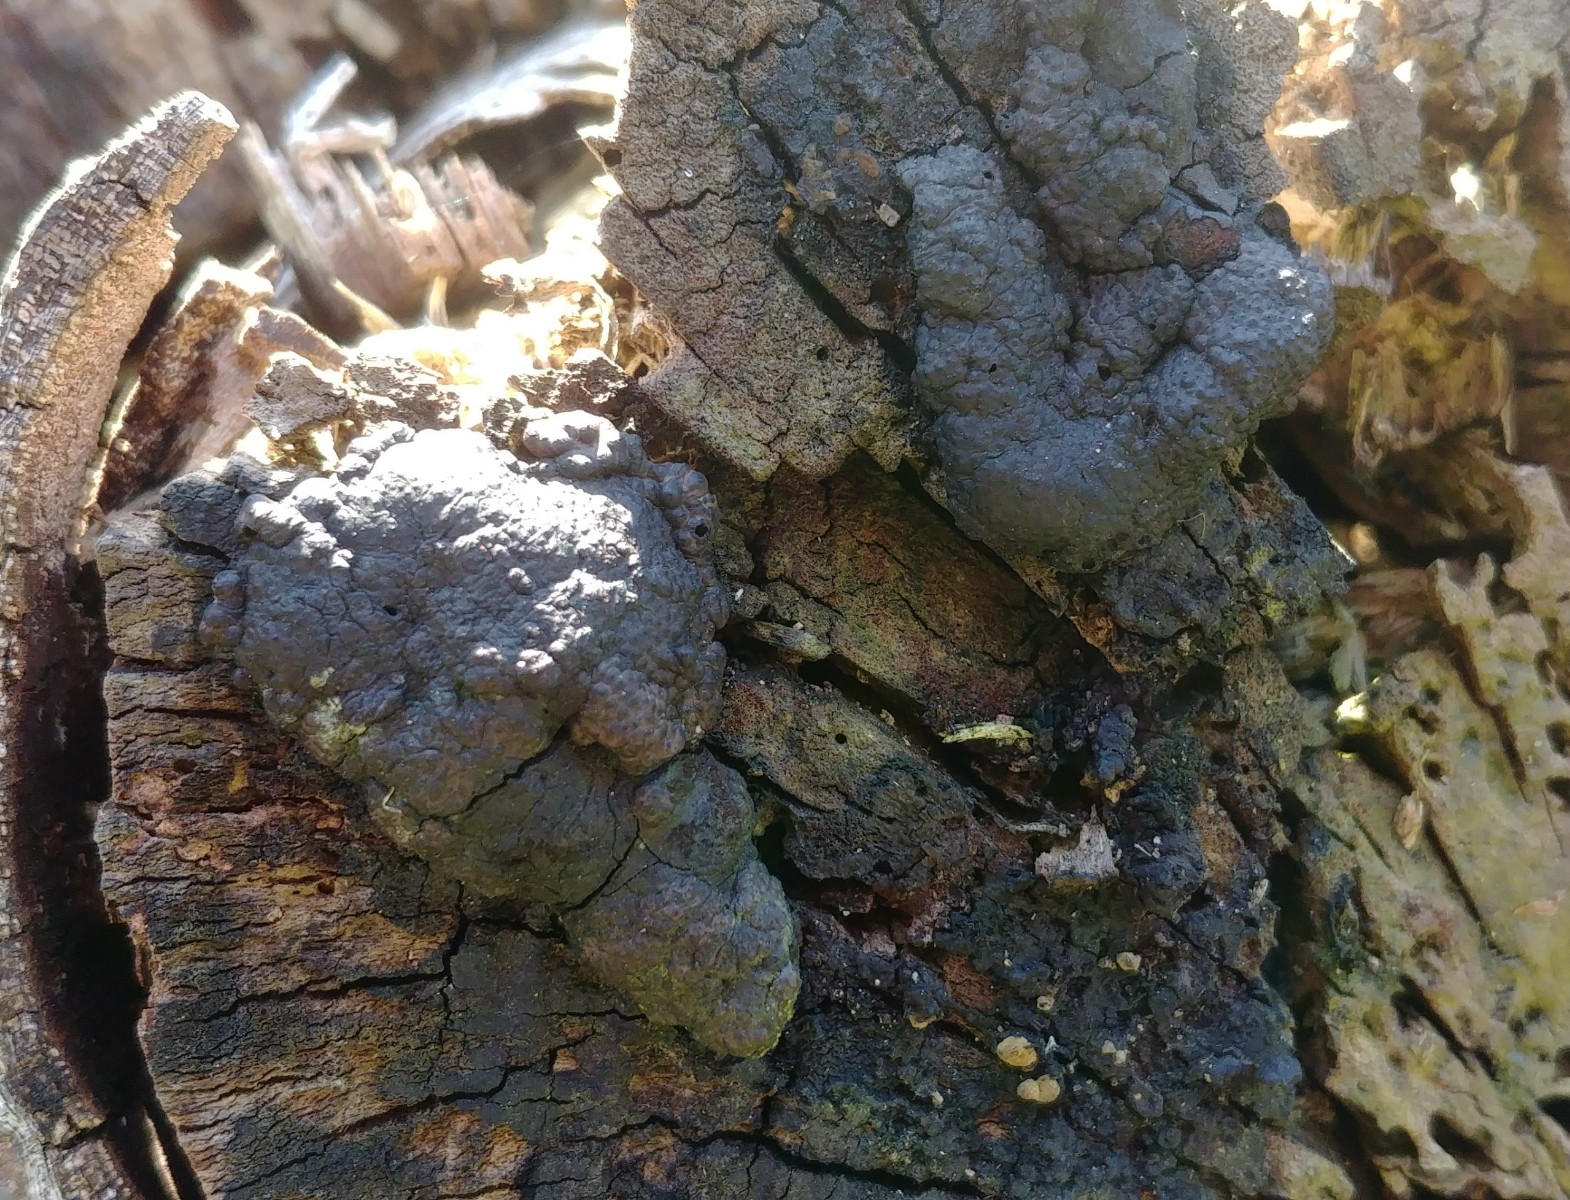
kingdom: Fungi
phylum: Ascomycota
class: Sordariomycetes
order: Xylariales
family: Hypoxylaceae
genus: Jackrogersella
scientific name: Jackrogersella multiformis
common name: foranderlig kulbær
